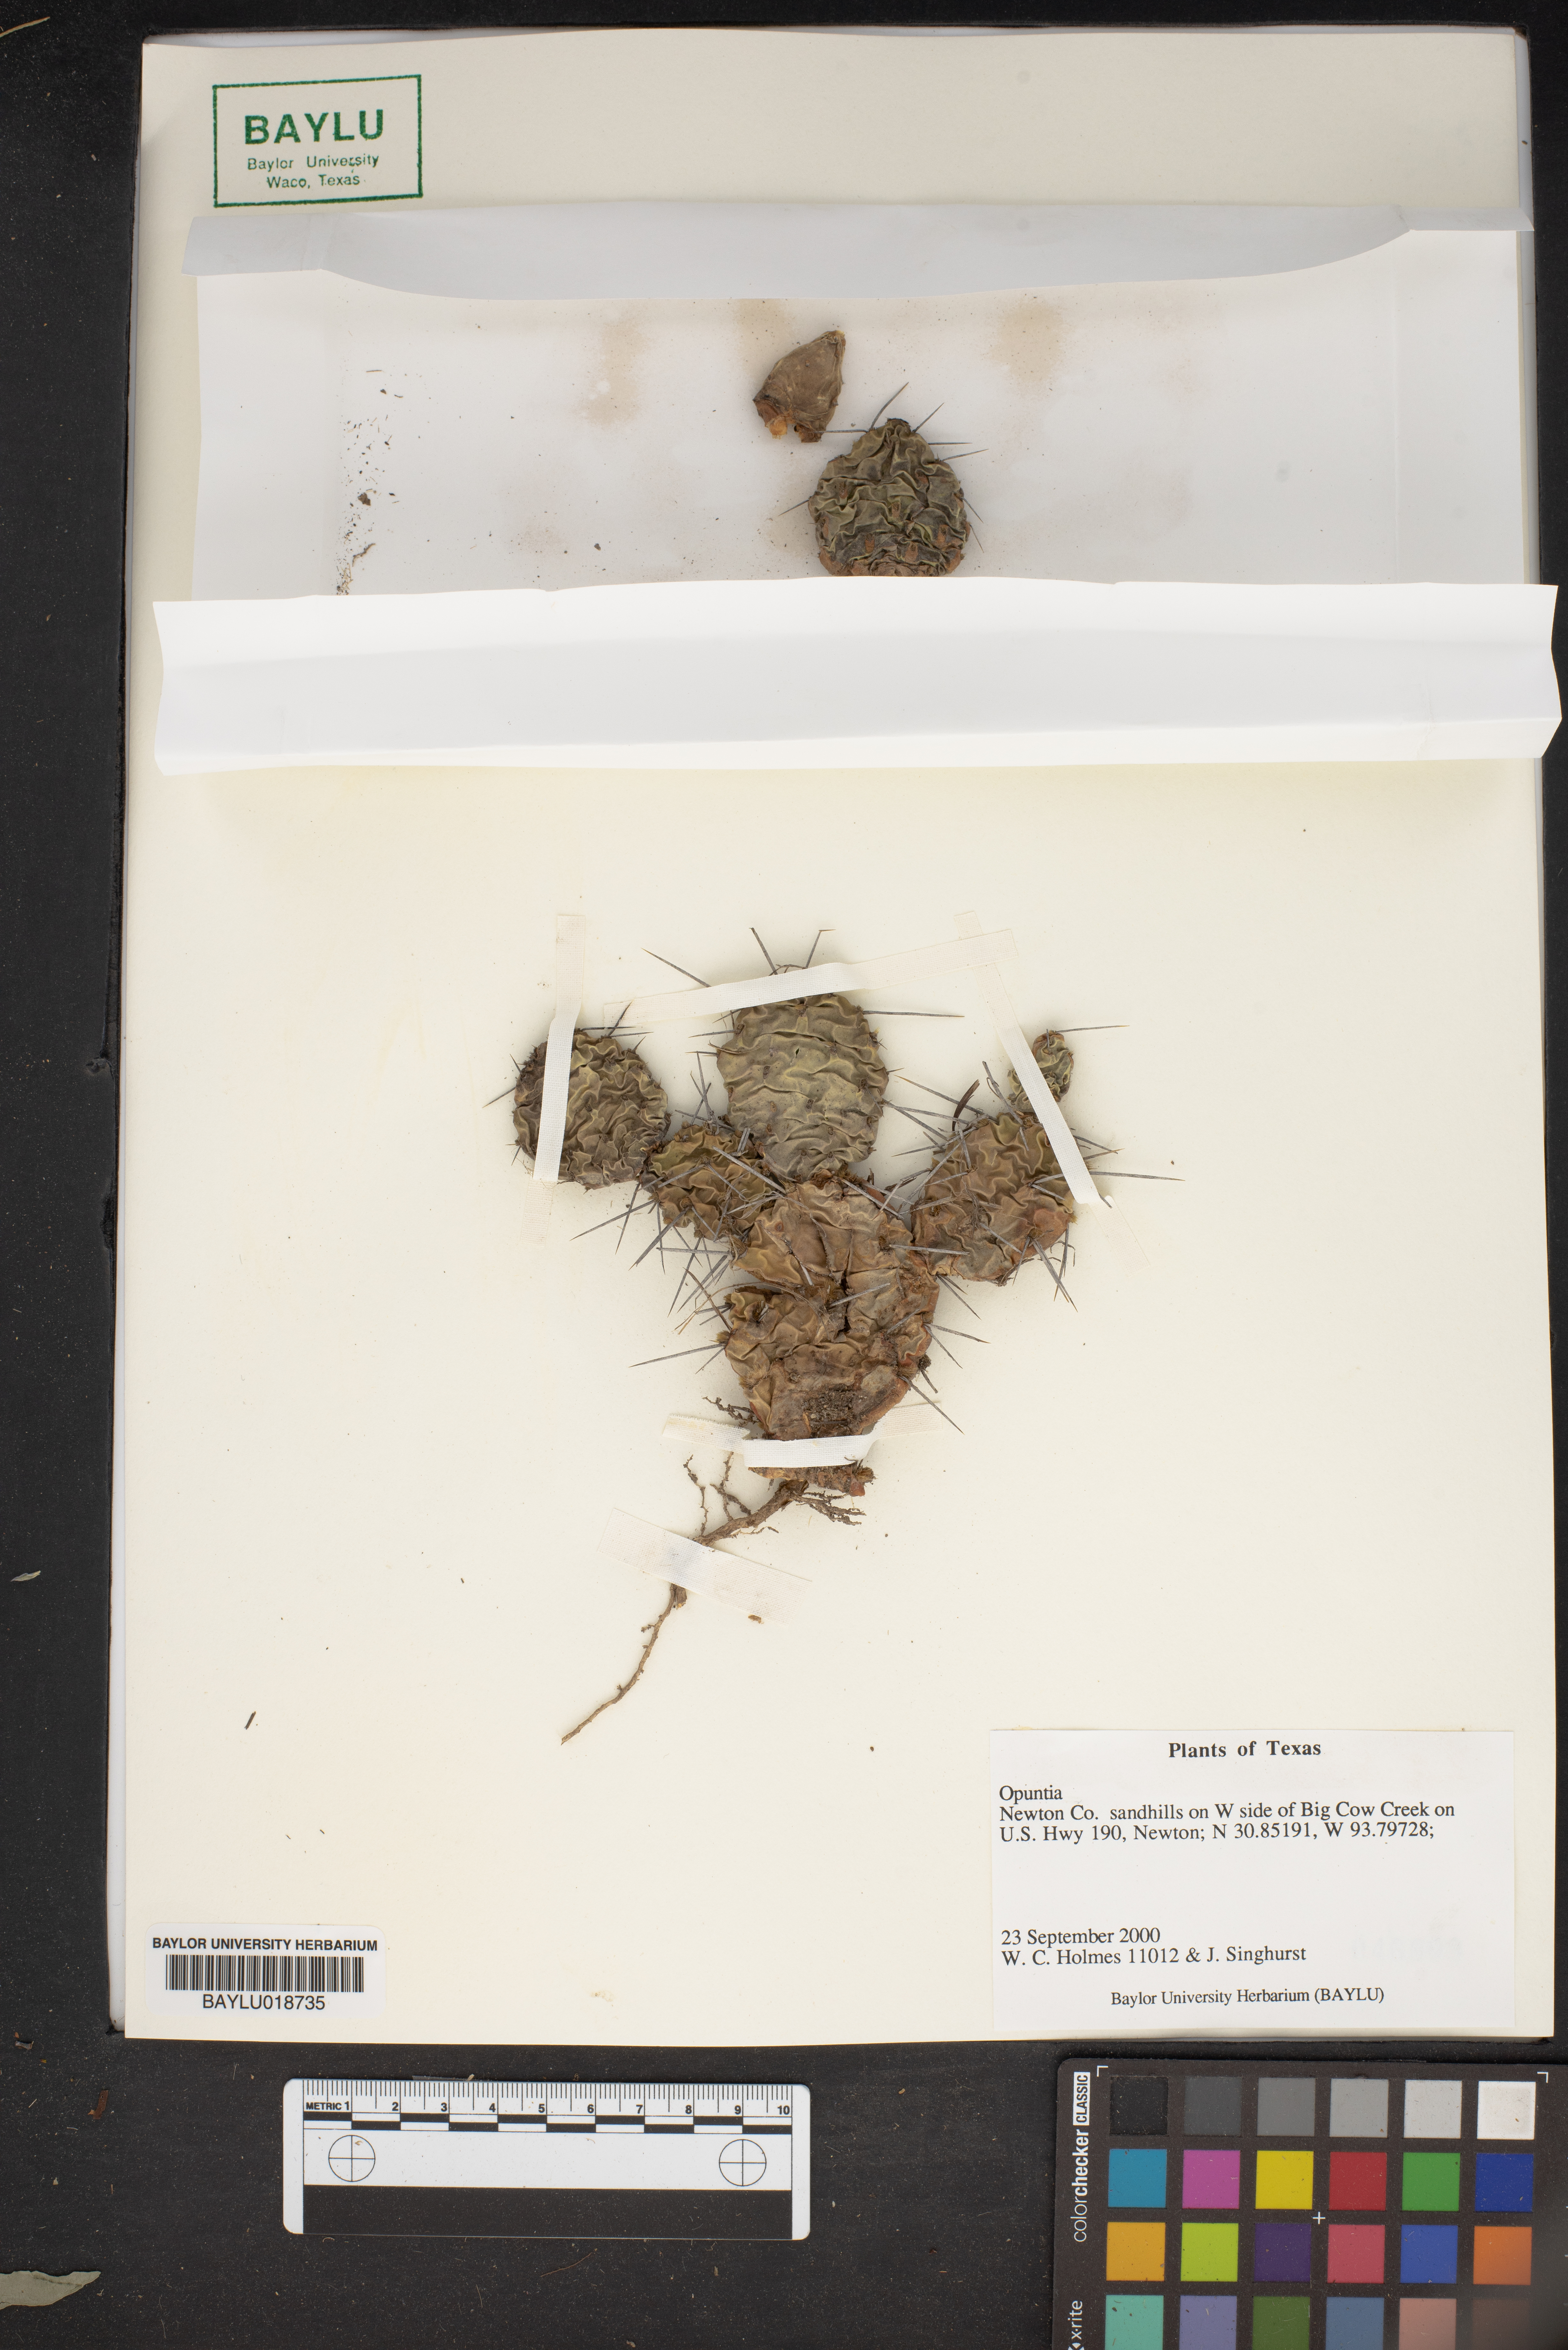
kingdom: Plantae
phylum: Tracheophyta
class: Magnoliopsida
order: Caryophyllales
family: Cactaceae
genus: Opuntia
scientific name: Opuntia
